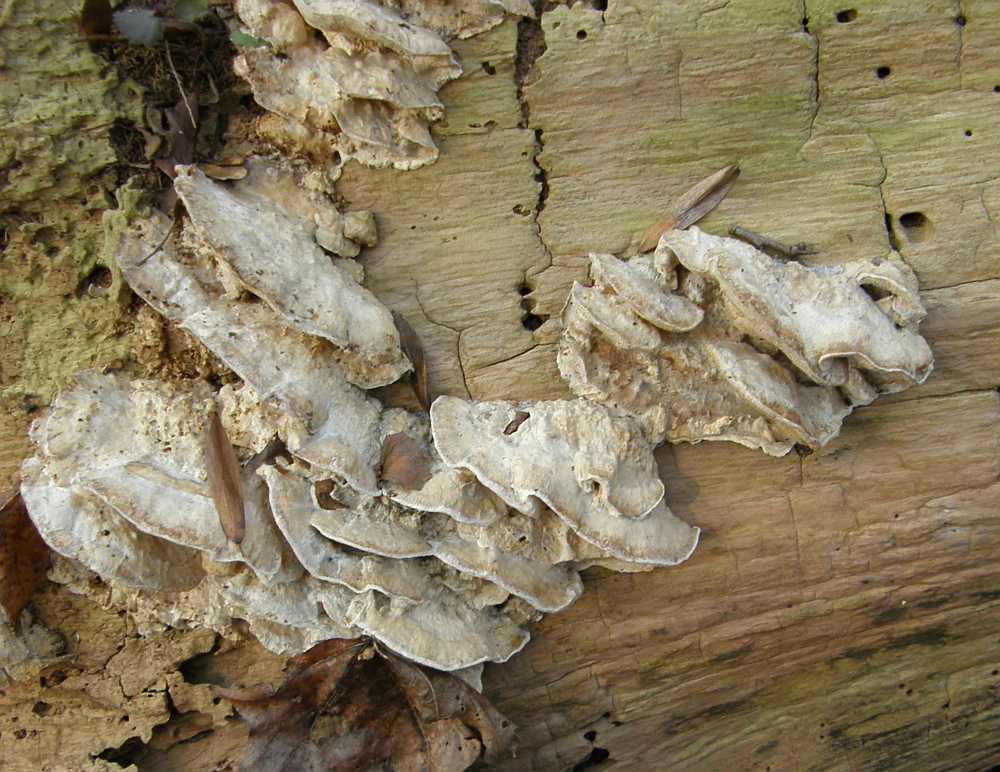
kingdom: Fungi
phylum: Basidiomycota
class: Agaricomycetes
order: Polyporales
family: Phanerochaetaceae
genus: Bjerkandera
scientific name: Bjerkandera fumosa
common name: grågul sodporesvamp
